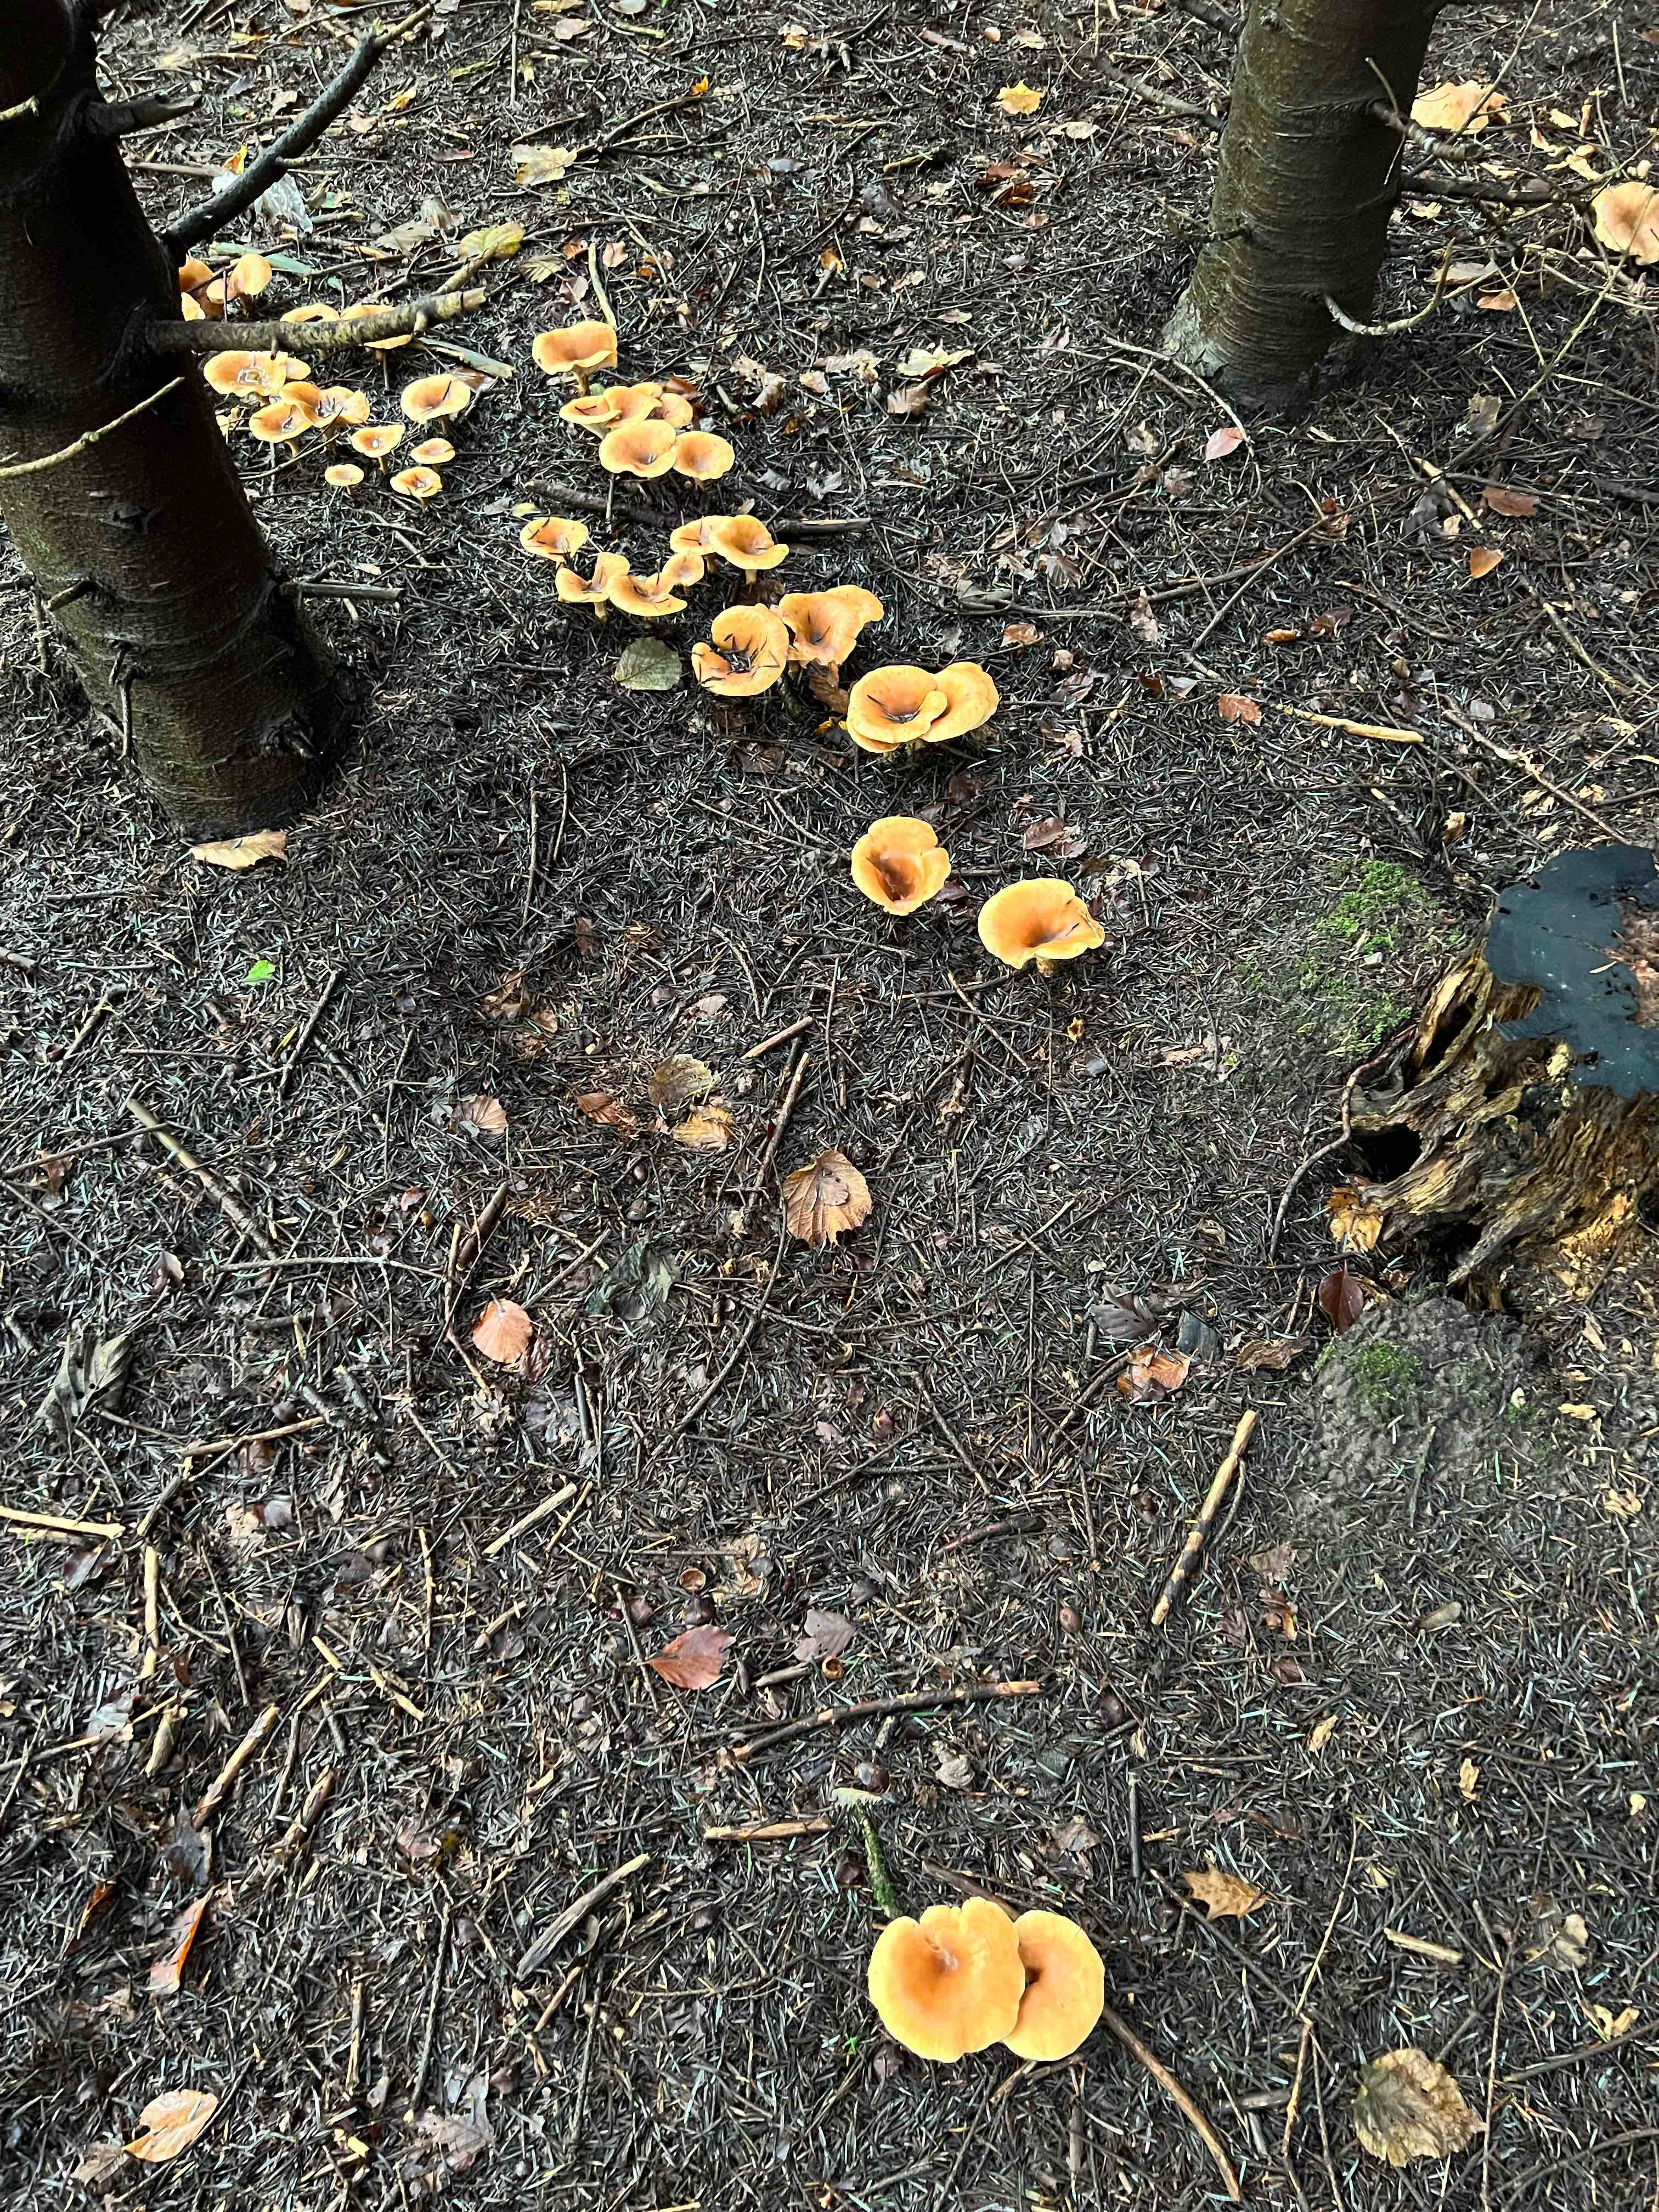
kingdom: Fungi
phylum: Basidiomycota
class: Agaricomycetes
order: Agaricales
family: Tricholomataceae
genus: Paralepista
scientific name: Paralepista flaccida
